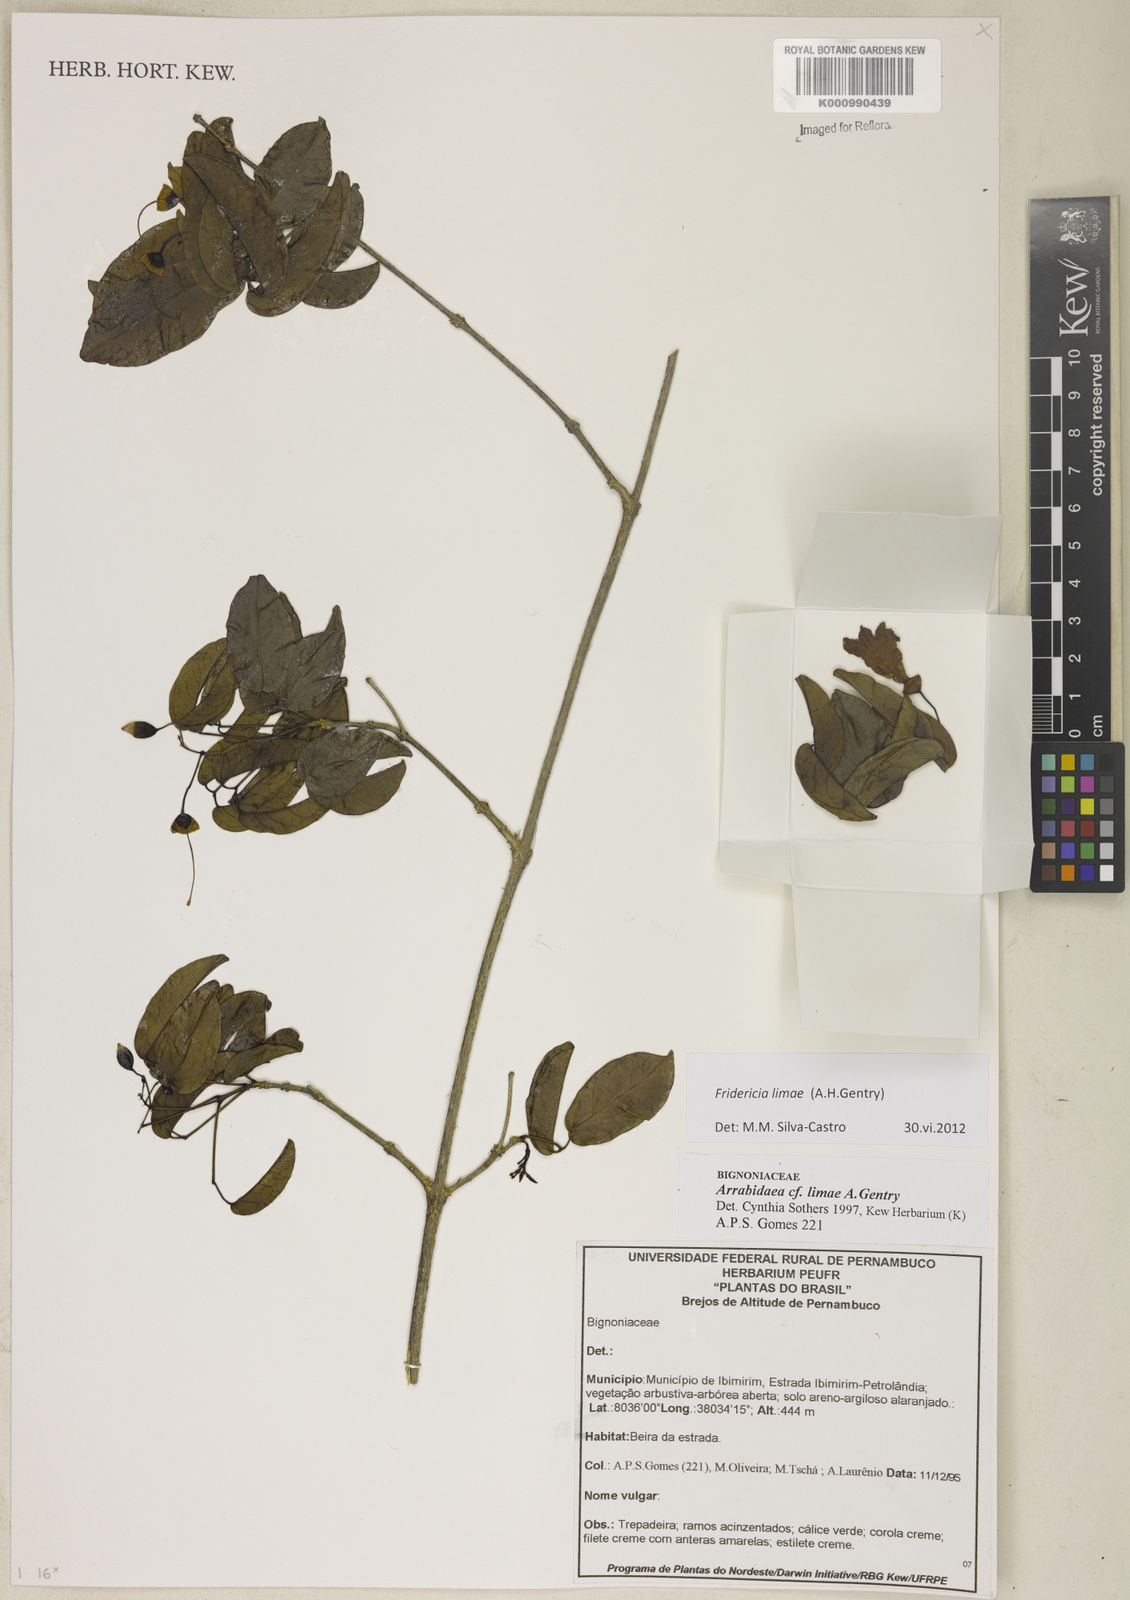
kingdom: Plantae
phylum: Tracheophyta
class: Magnoliopsida
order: Lamiales
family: Bignoniaceae
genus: Fridericia
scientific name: Fridericia limae
